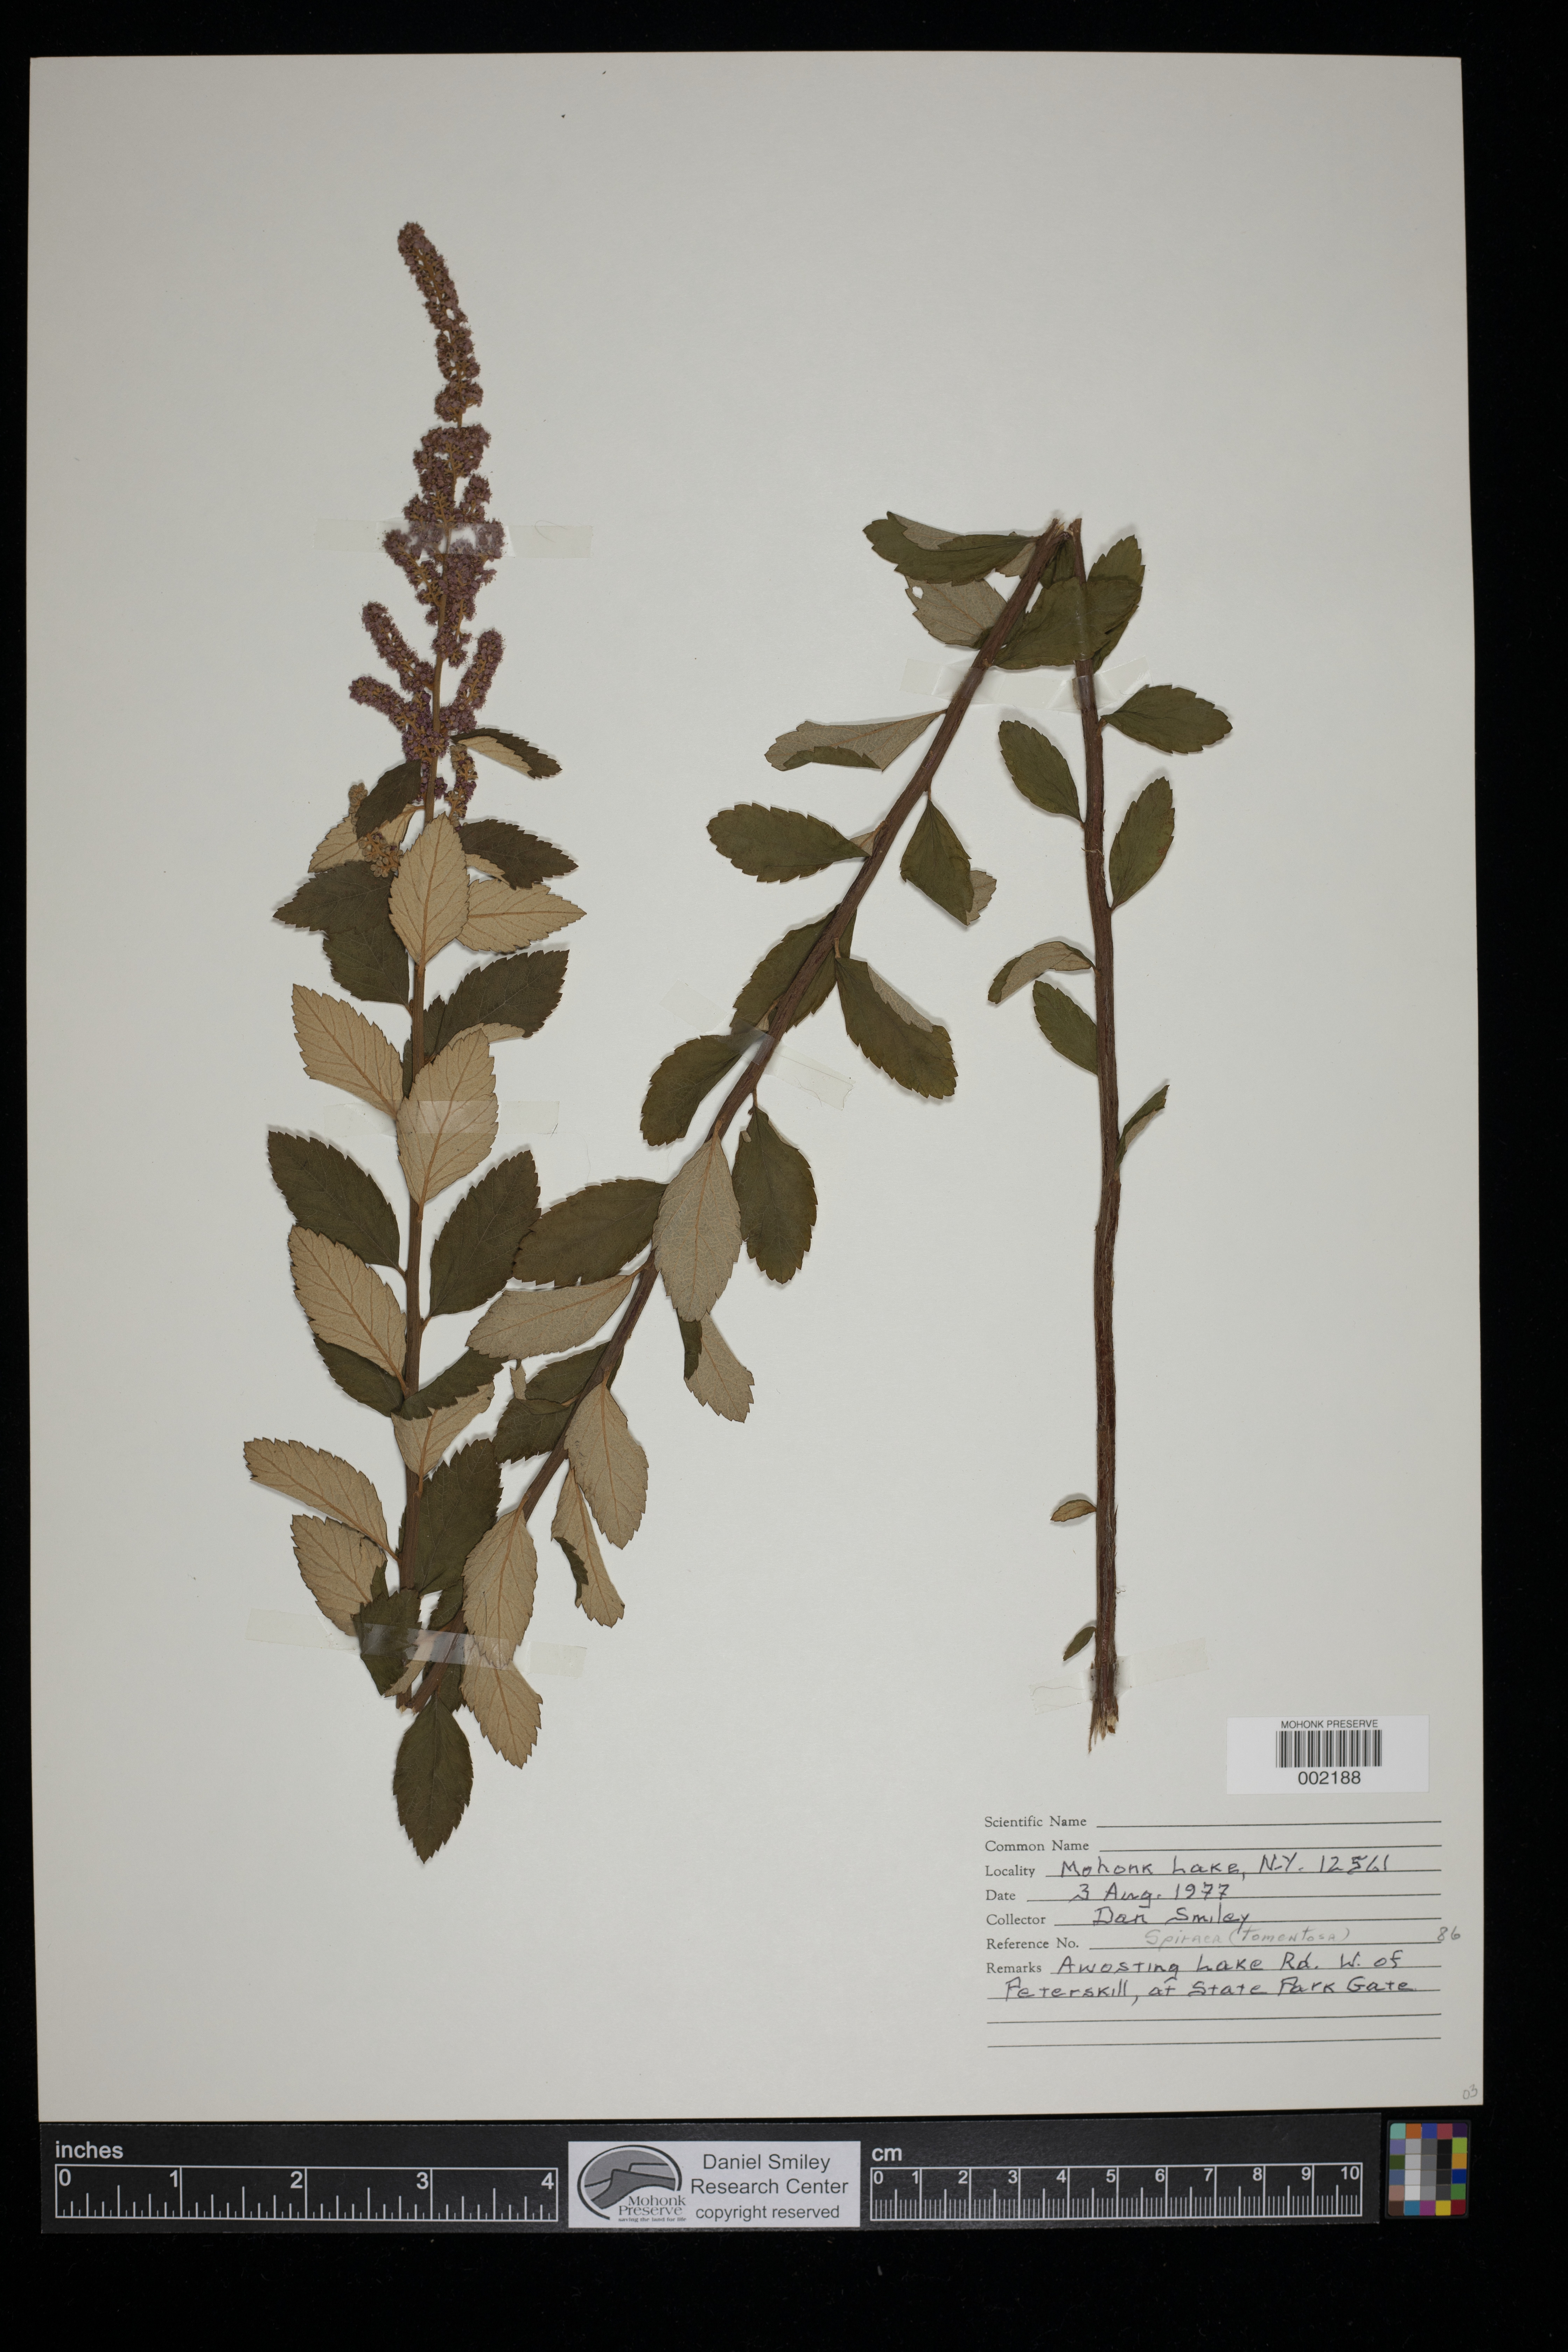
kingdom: Plantae
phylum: Tracheophyta
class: Magnoliopsida
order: Rosales
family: Rosaceae
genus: Spiraea
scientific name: Spiraea tomentosa
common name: Hardhack
